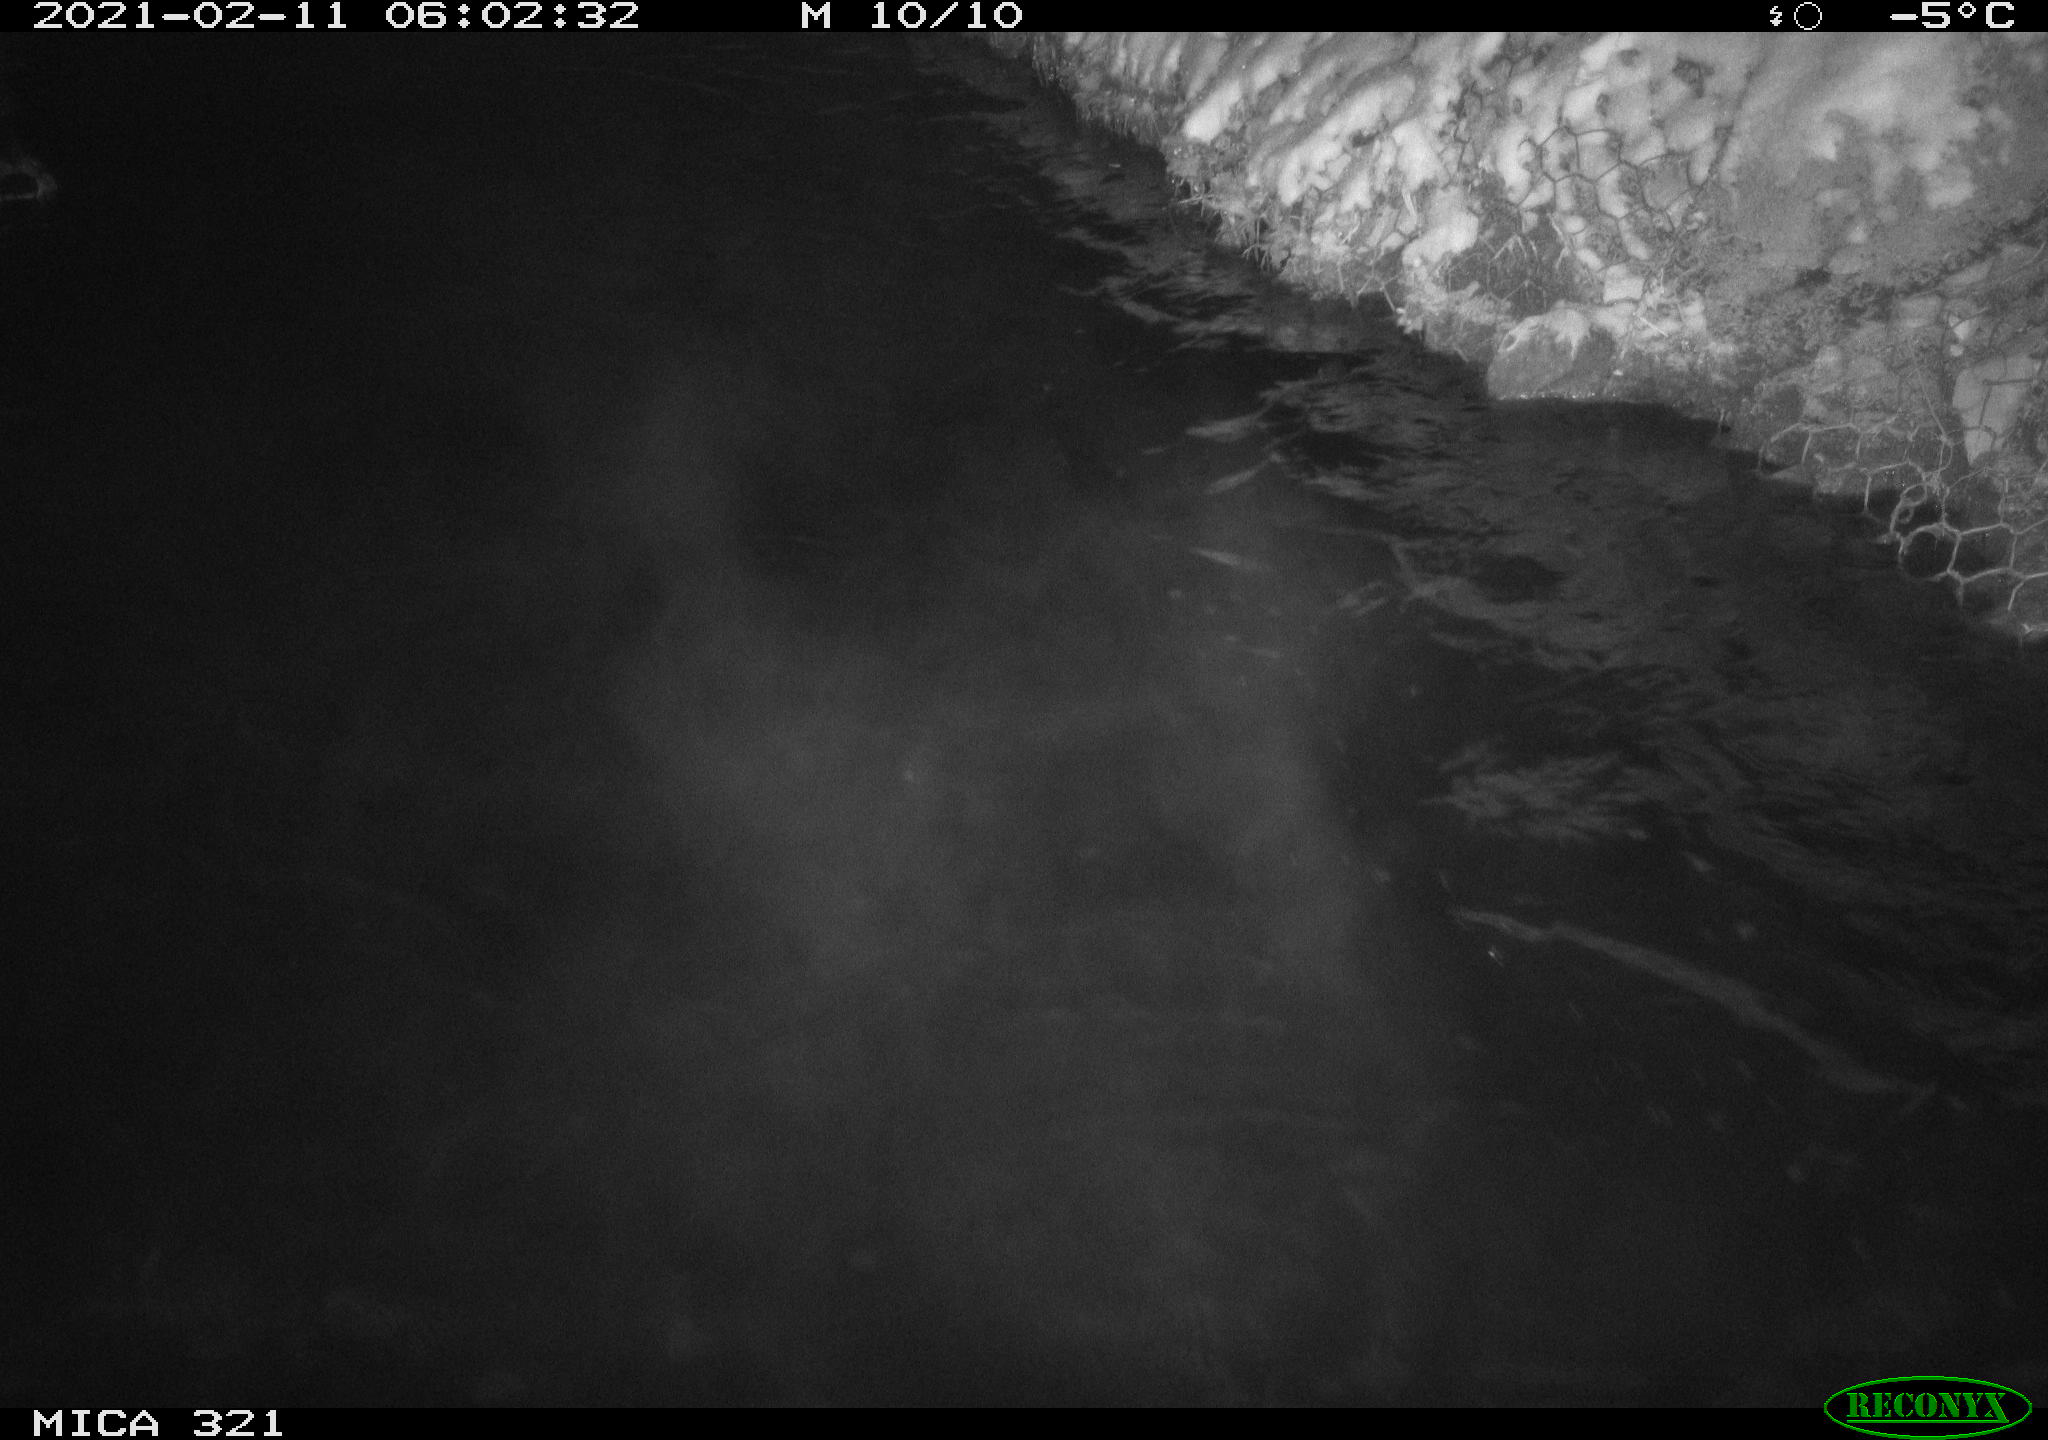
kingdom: Animalia
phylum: Chordata
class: Aves
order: Anseriformes
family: Anatidae
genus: Anas
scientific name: Anas platyrhynchos
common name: Mallard
